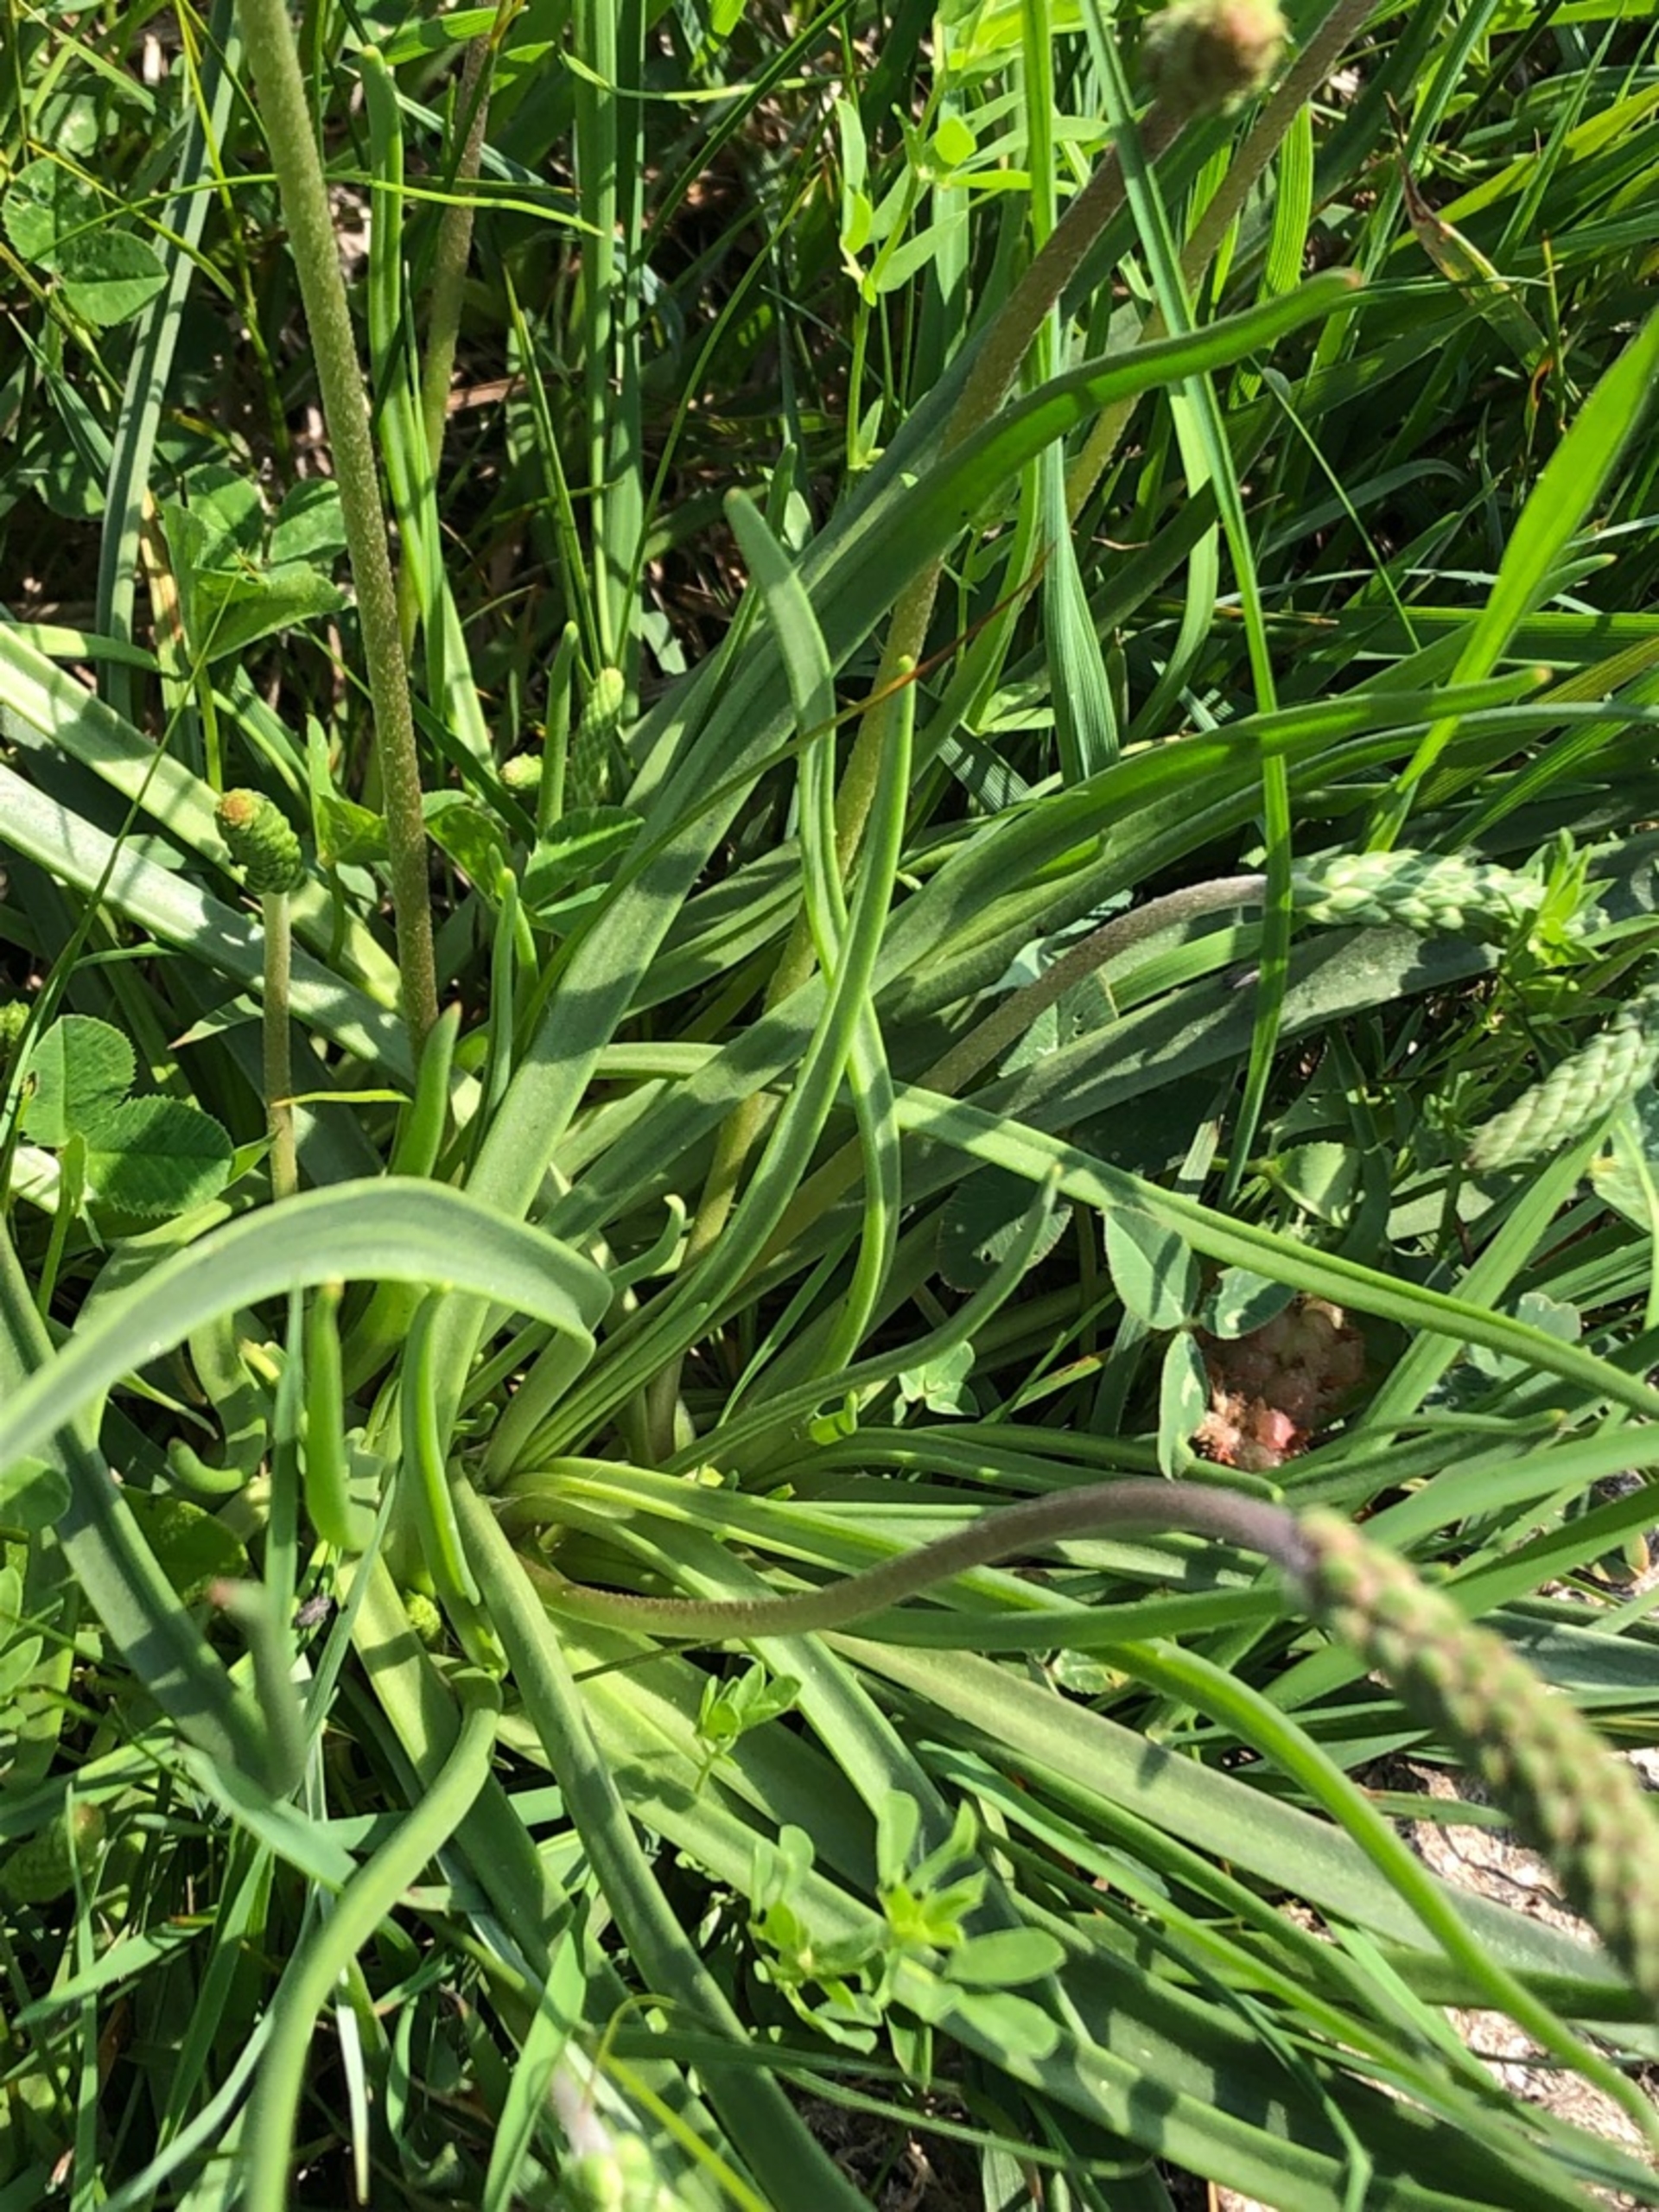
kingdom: Plantae
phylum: Tracheophyta
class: Magnoliopsida
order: Lamiales
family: Plantaginaceae
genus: Plantago
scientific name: Plantago maritima
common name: Strand-vejbred
